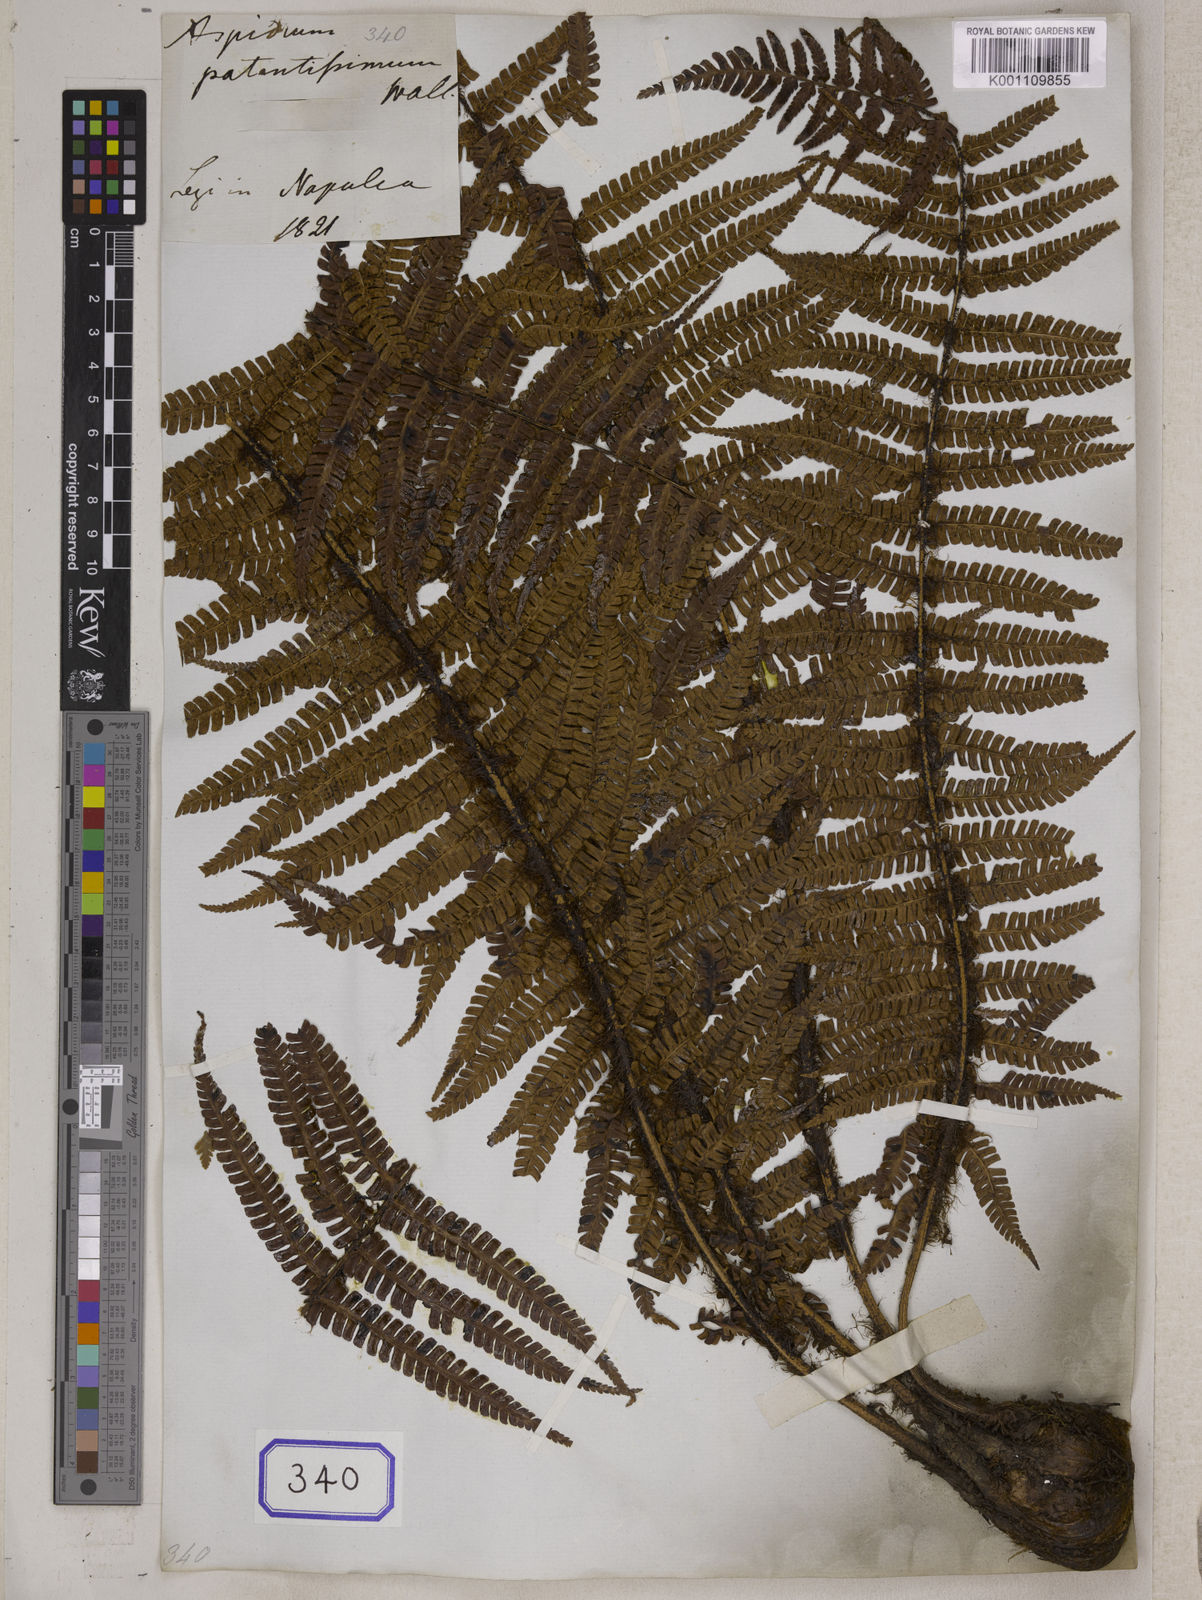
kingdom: Plantae
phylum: Tracheophyta
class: Polypodiopsida
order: Polypodiales
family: Dryopteridaceae
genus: Dryopteris
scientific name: Dryopteris wallichiana
